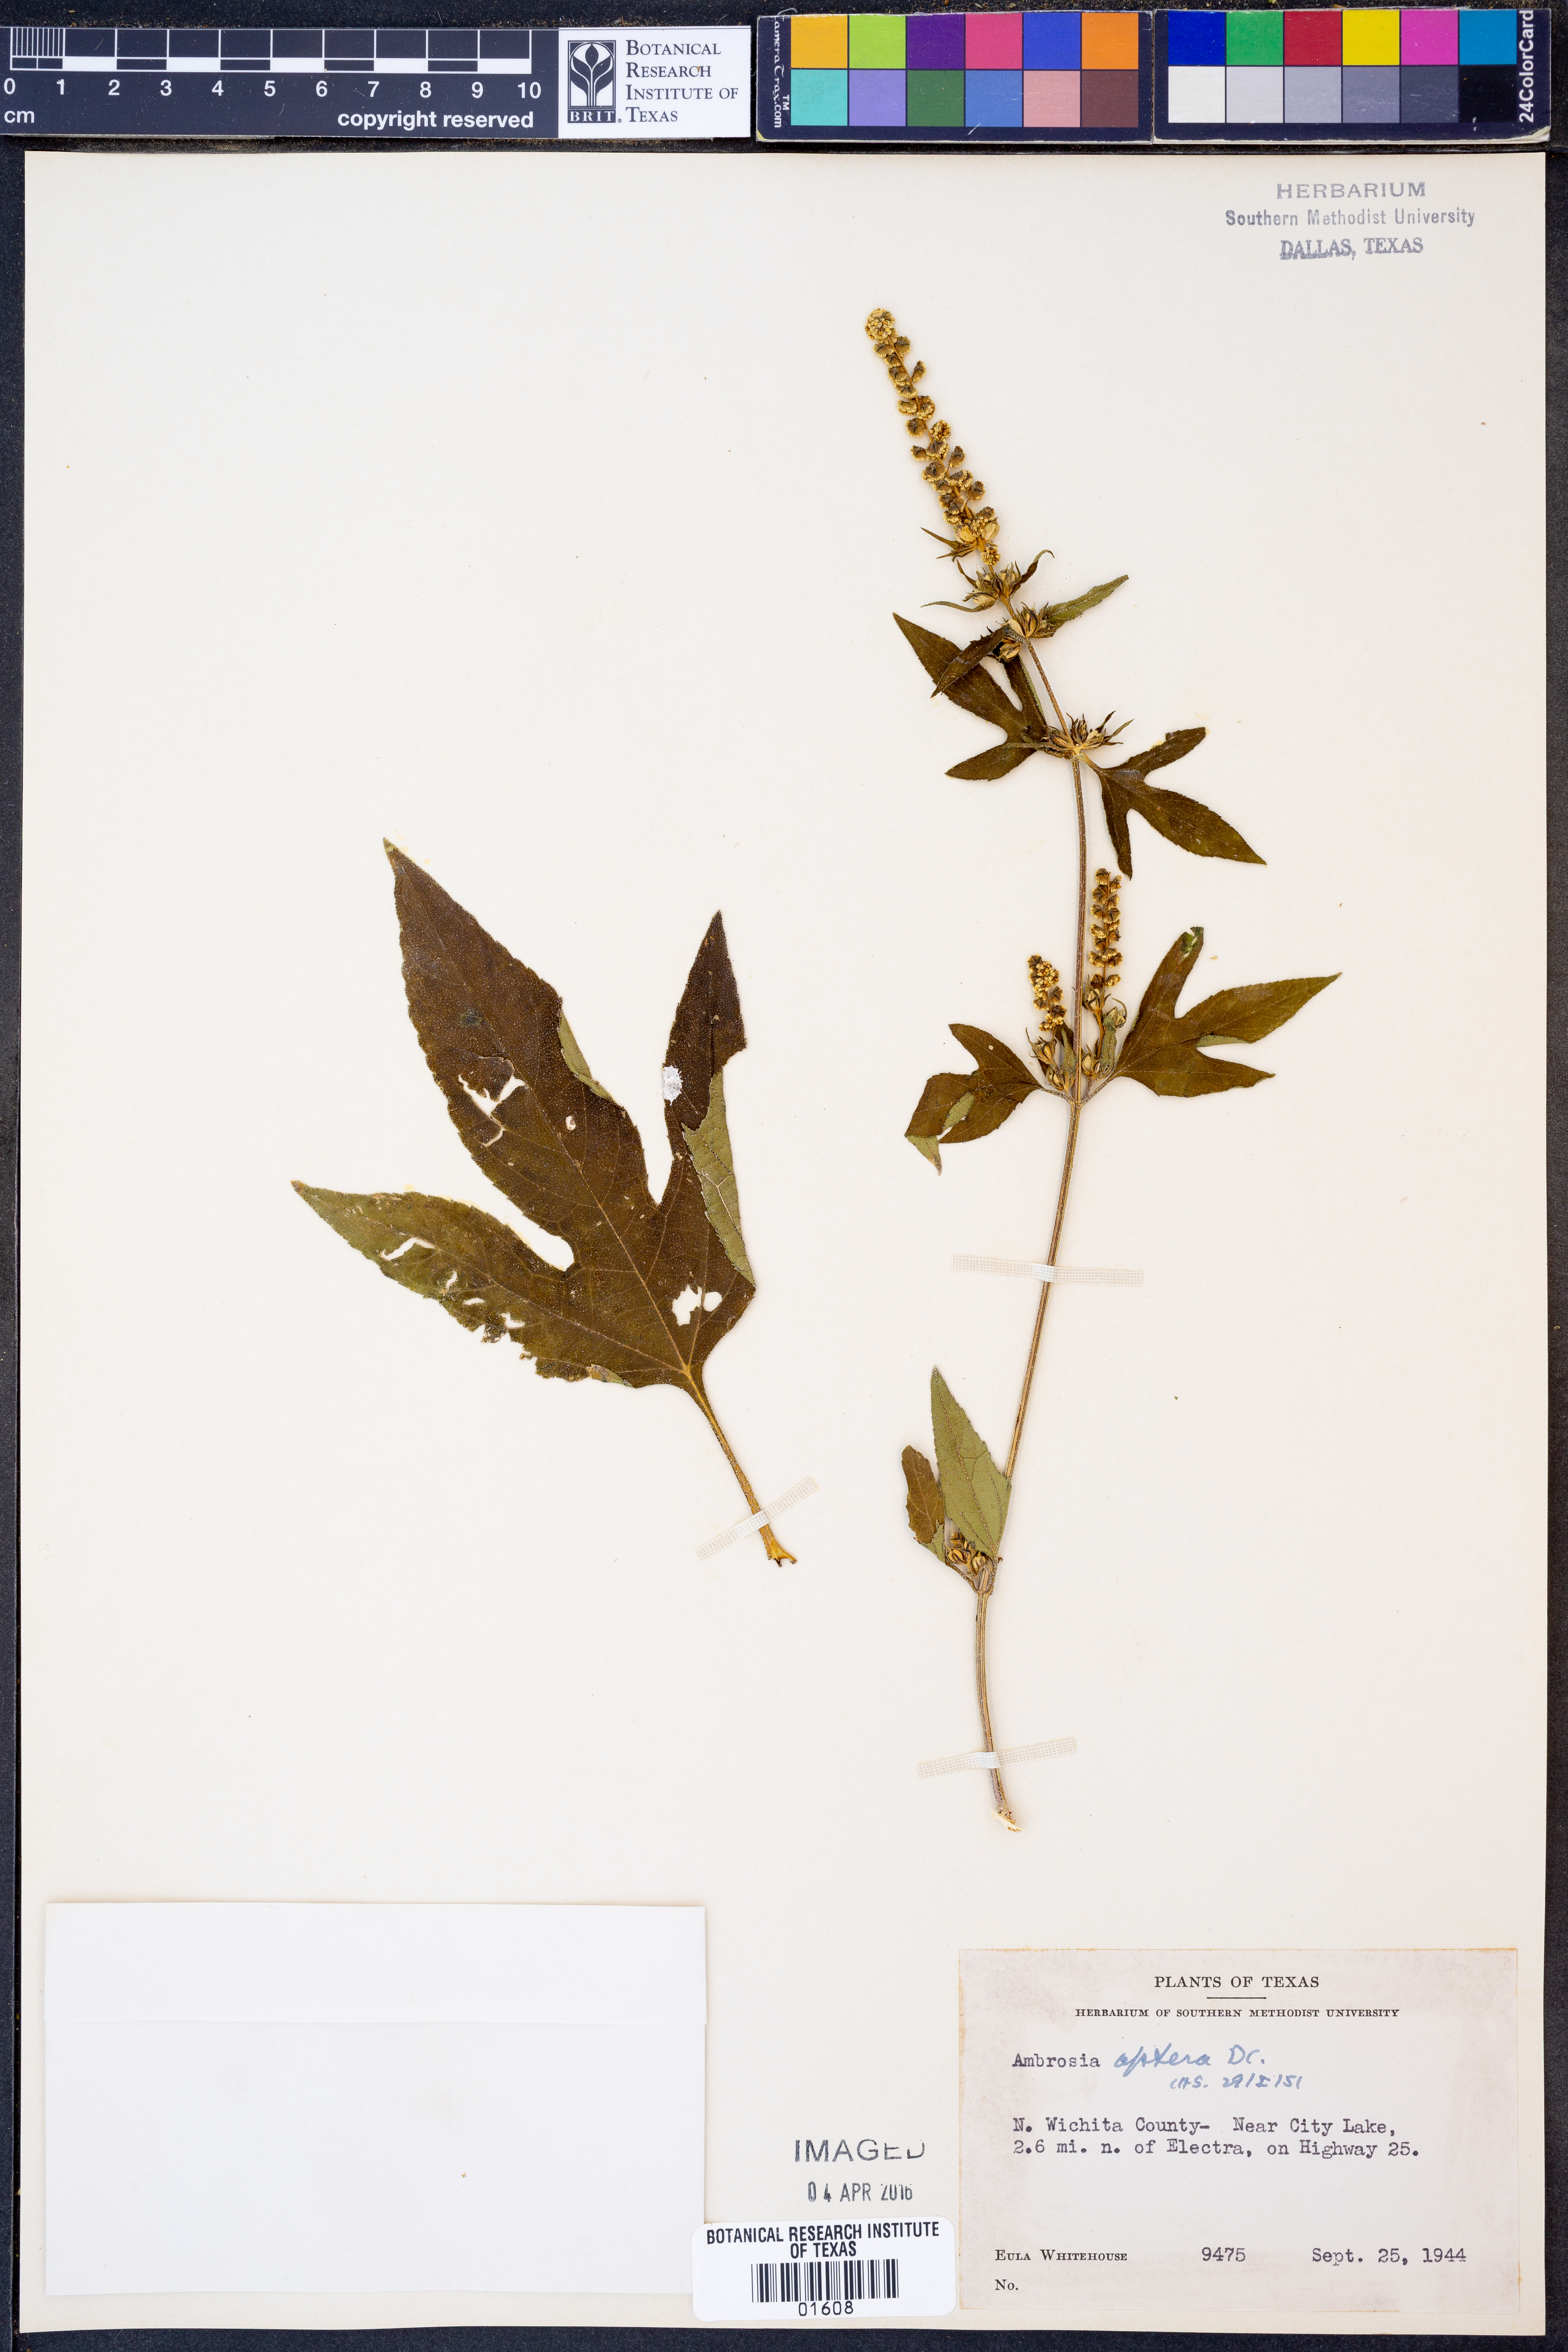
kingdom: Plantae
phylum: Tracheophyta
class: Magnoliopsida
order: Asterales
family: Asteraceae
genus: Ambrosia
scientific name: Ambrosia trifida
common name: Giant ragweed
